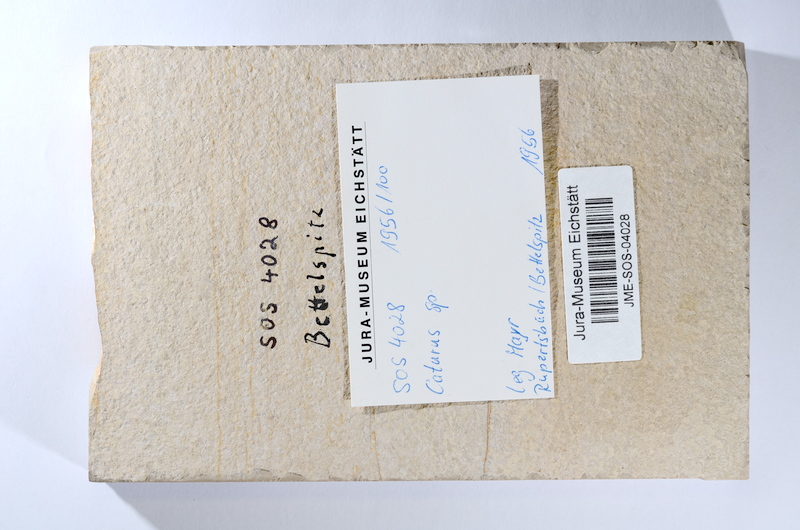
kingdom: Animalia
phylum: Chordata
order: Amiiformes
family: Caturidae
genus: Caturus
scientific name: Caturus
